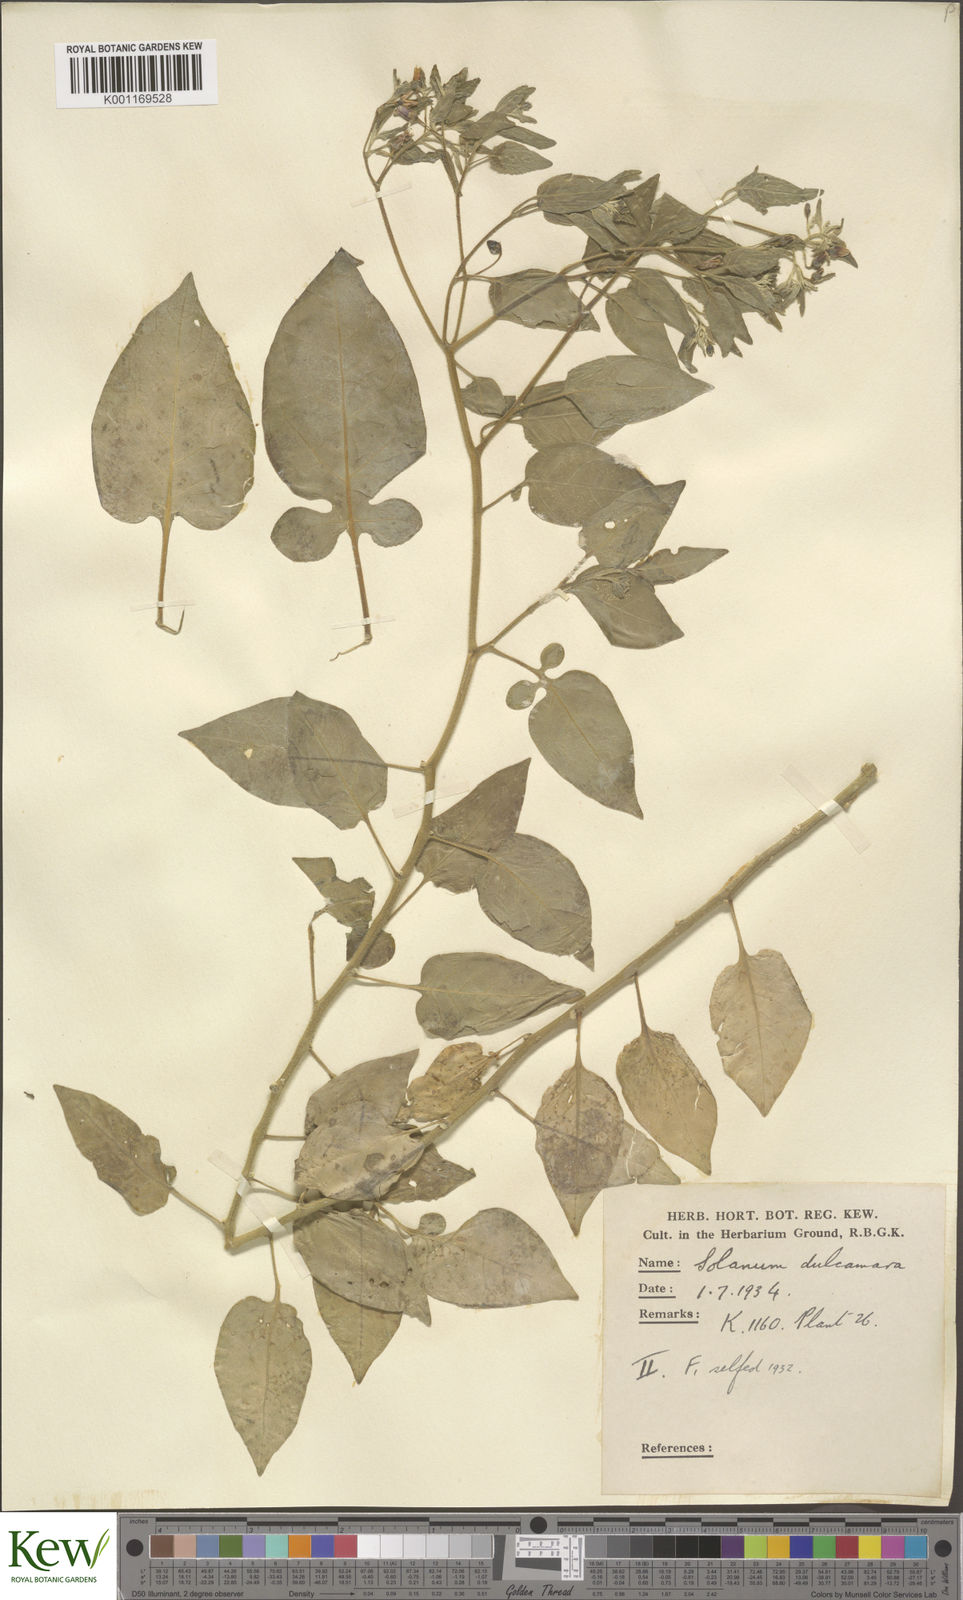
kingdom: Plantae
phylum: Tracheophyta
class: Magnoliopsida
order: Solanales
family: Solanaceae
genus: Solanum
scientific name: Solanum dulcamara
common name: Climbing nightshade
